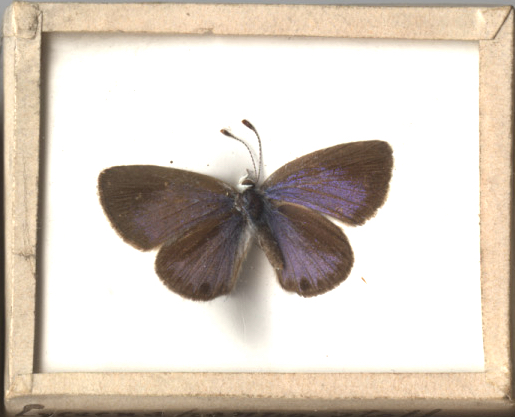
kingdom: Animalia
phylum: Arthropoda
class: Insecta
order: Lepidoptera
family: Lycaenidae
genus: Hemiargus
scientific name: Hemiargus ceraunus
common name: Ceraunus Blue
